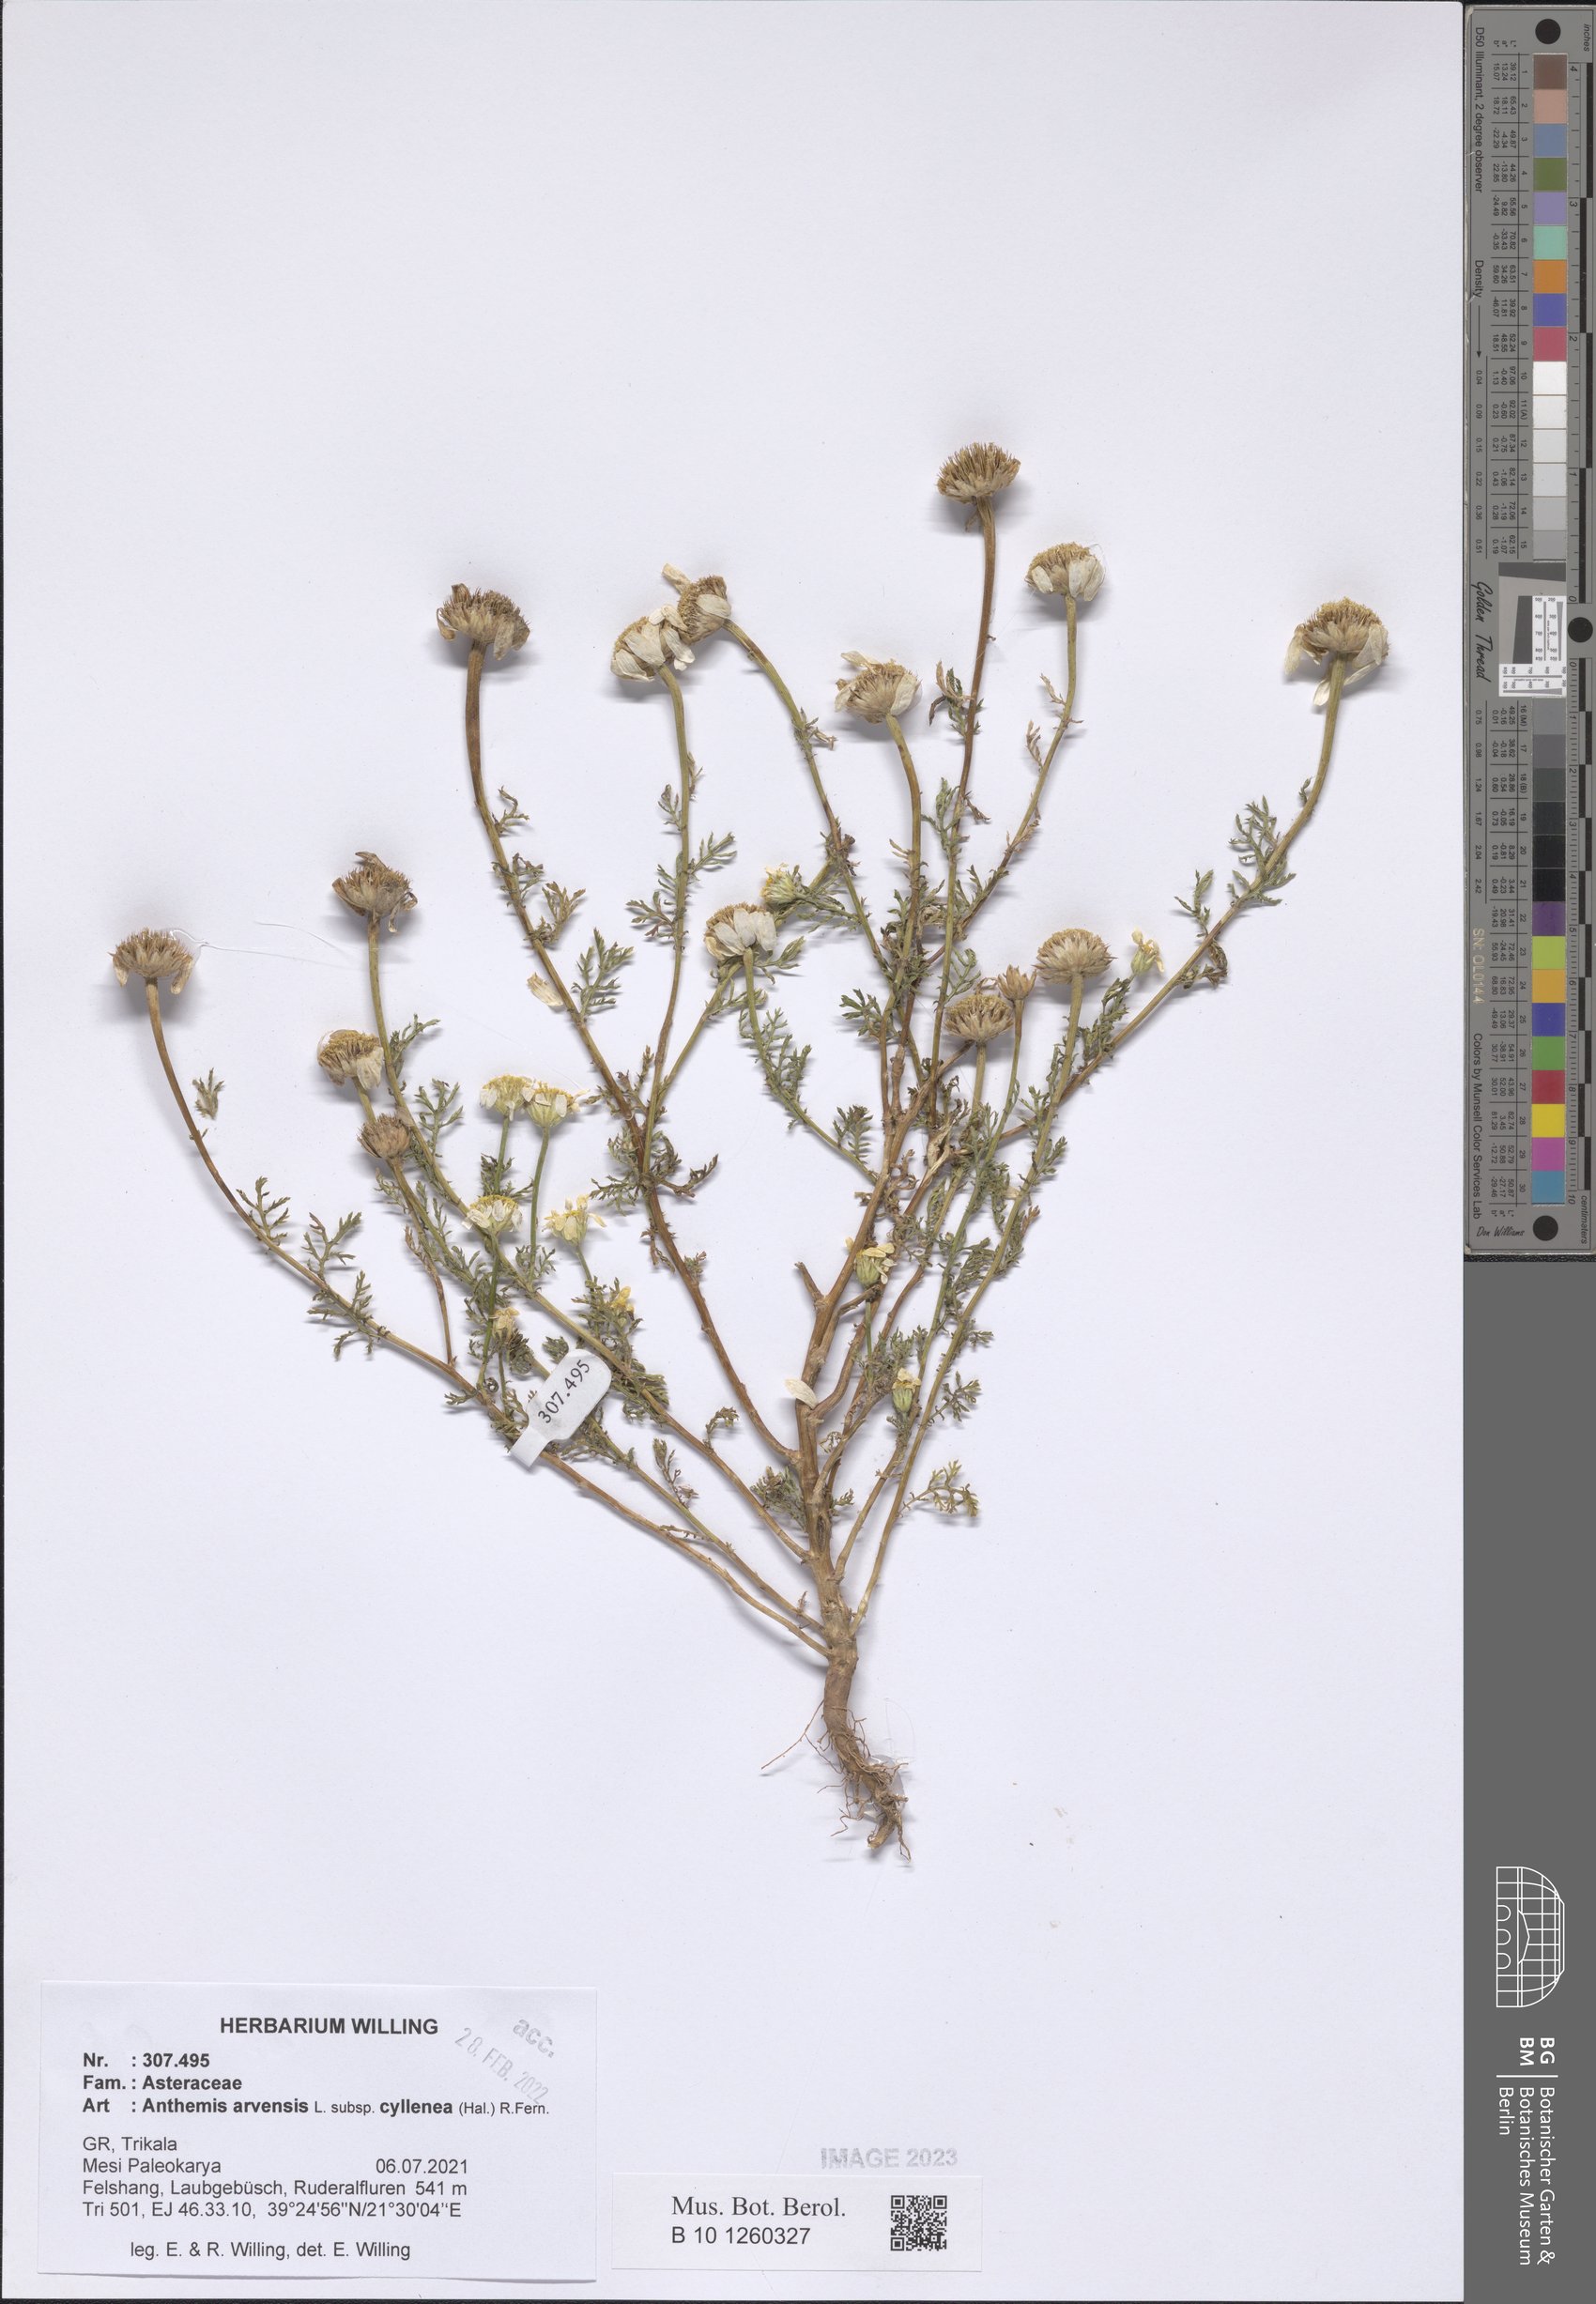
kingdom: Plantae
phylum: Tracheophyta
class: Magnoliopsida
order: Asterales
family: Asteraceae
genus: Anthemis
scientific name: Anthemis arvensis
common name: Corn chamomile
